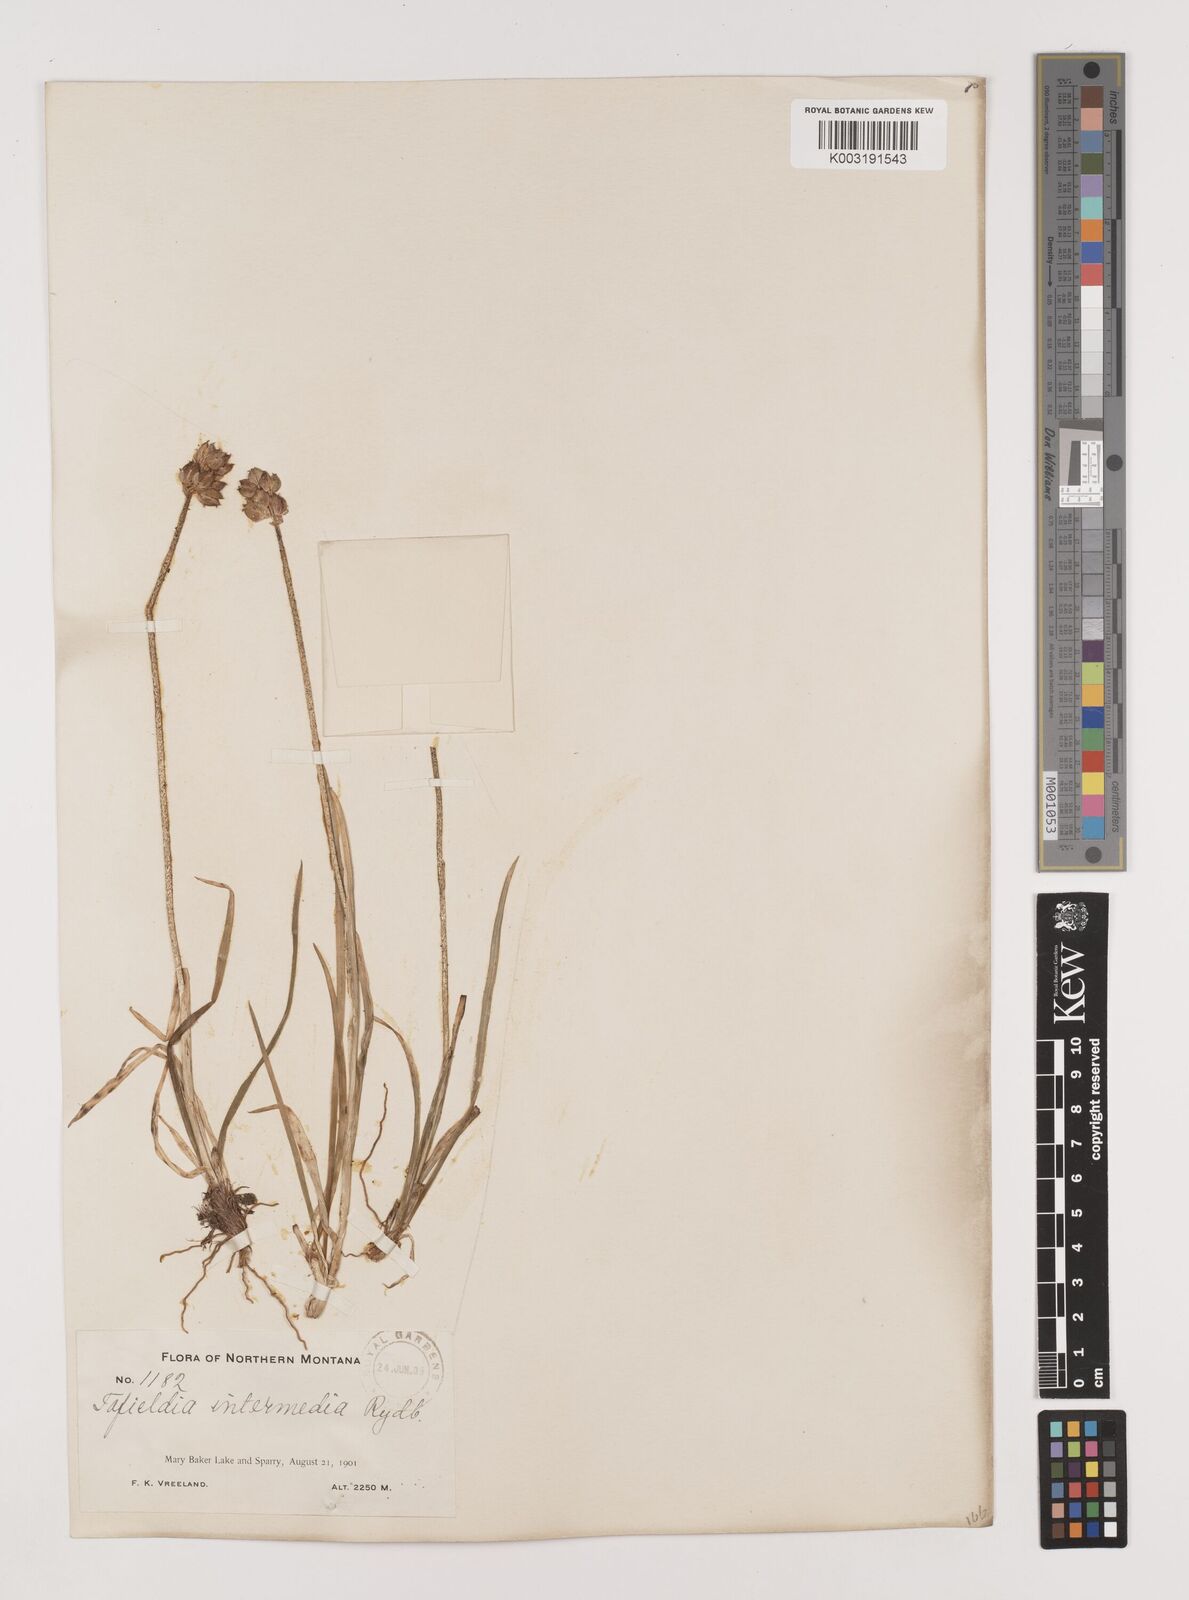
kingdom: Plantae
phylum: Tracheophyta
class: Liliopsida
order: Alismatales
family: Tofieldiaceae
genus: Triantha
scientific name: Triantha occidentalis
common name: Western false asphodel
